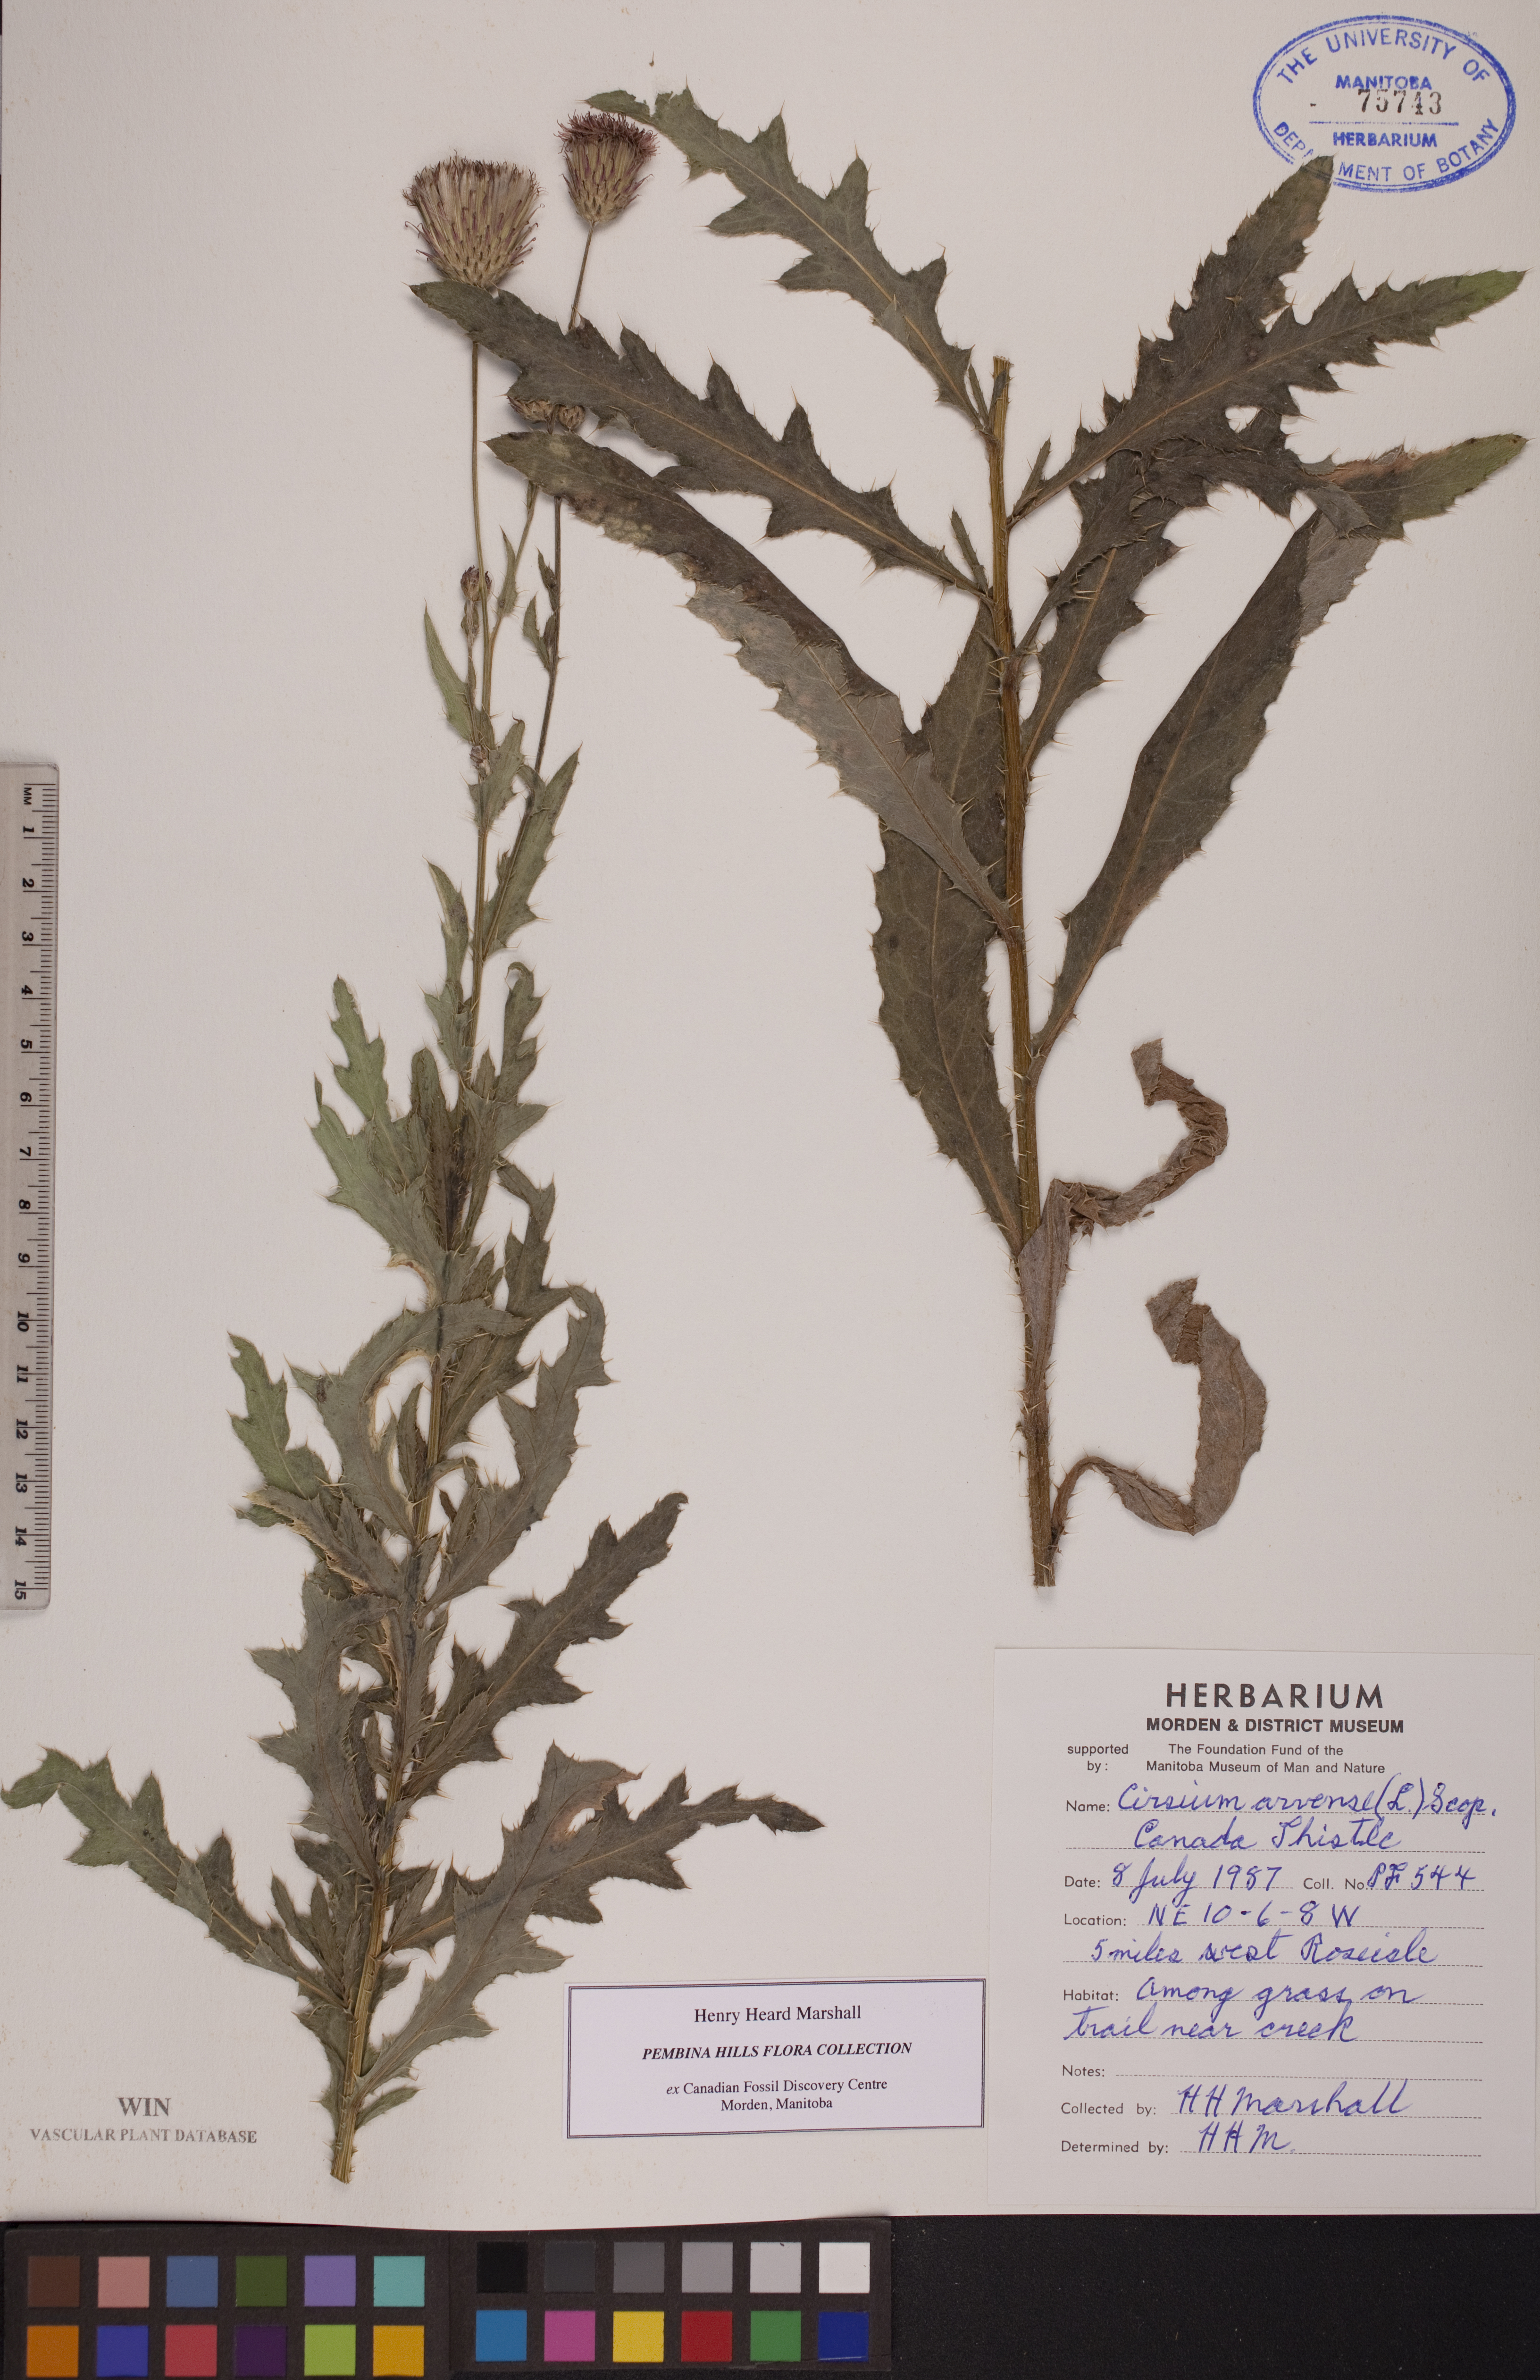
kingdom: Plantae
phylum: Tracheophyta
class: Magnoliopsida
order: Asterales
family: Asteraceae
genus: Cirsium
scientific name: Cirsium arvense
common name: Creeping thistle
